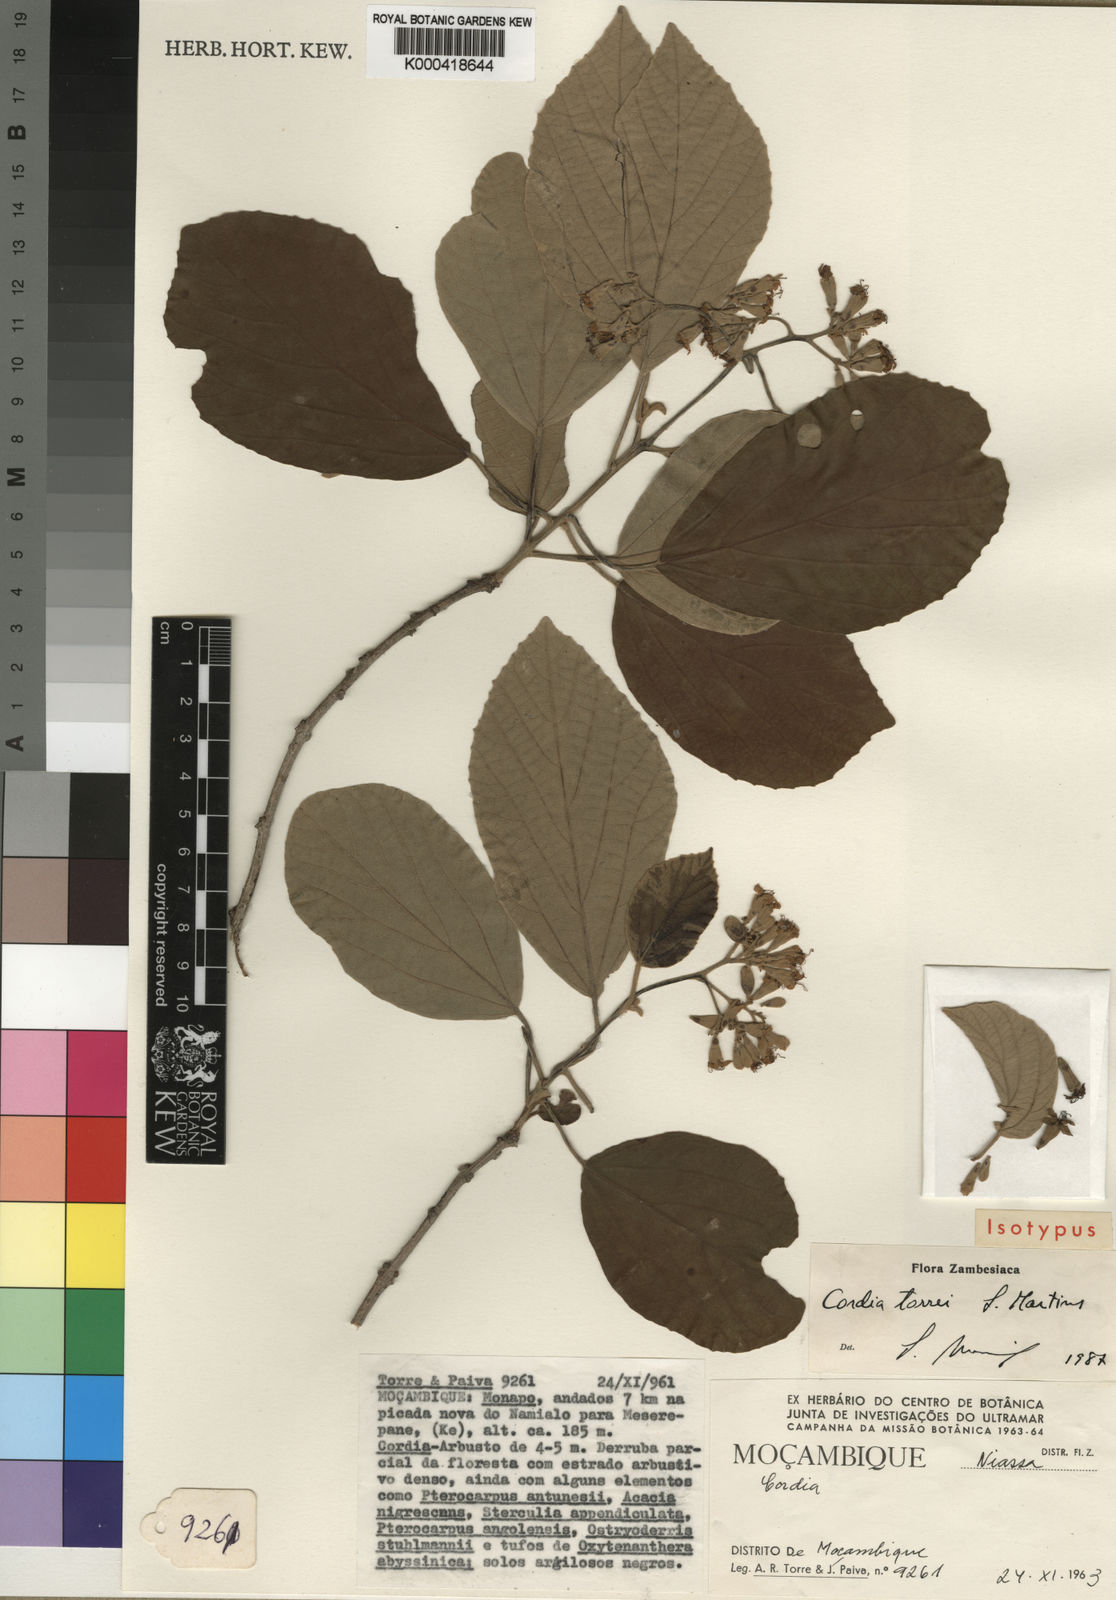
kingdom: Plantae
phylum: Tracheophyta
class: Magnoliopsida
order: Boraginales
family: Cordiaceae
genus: Cordia
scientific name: Cordia torrei
